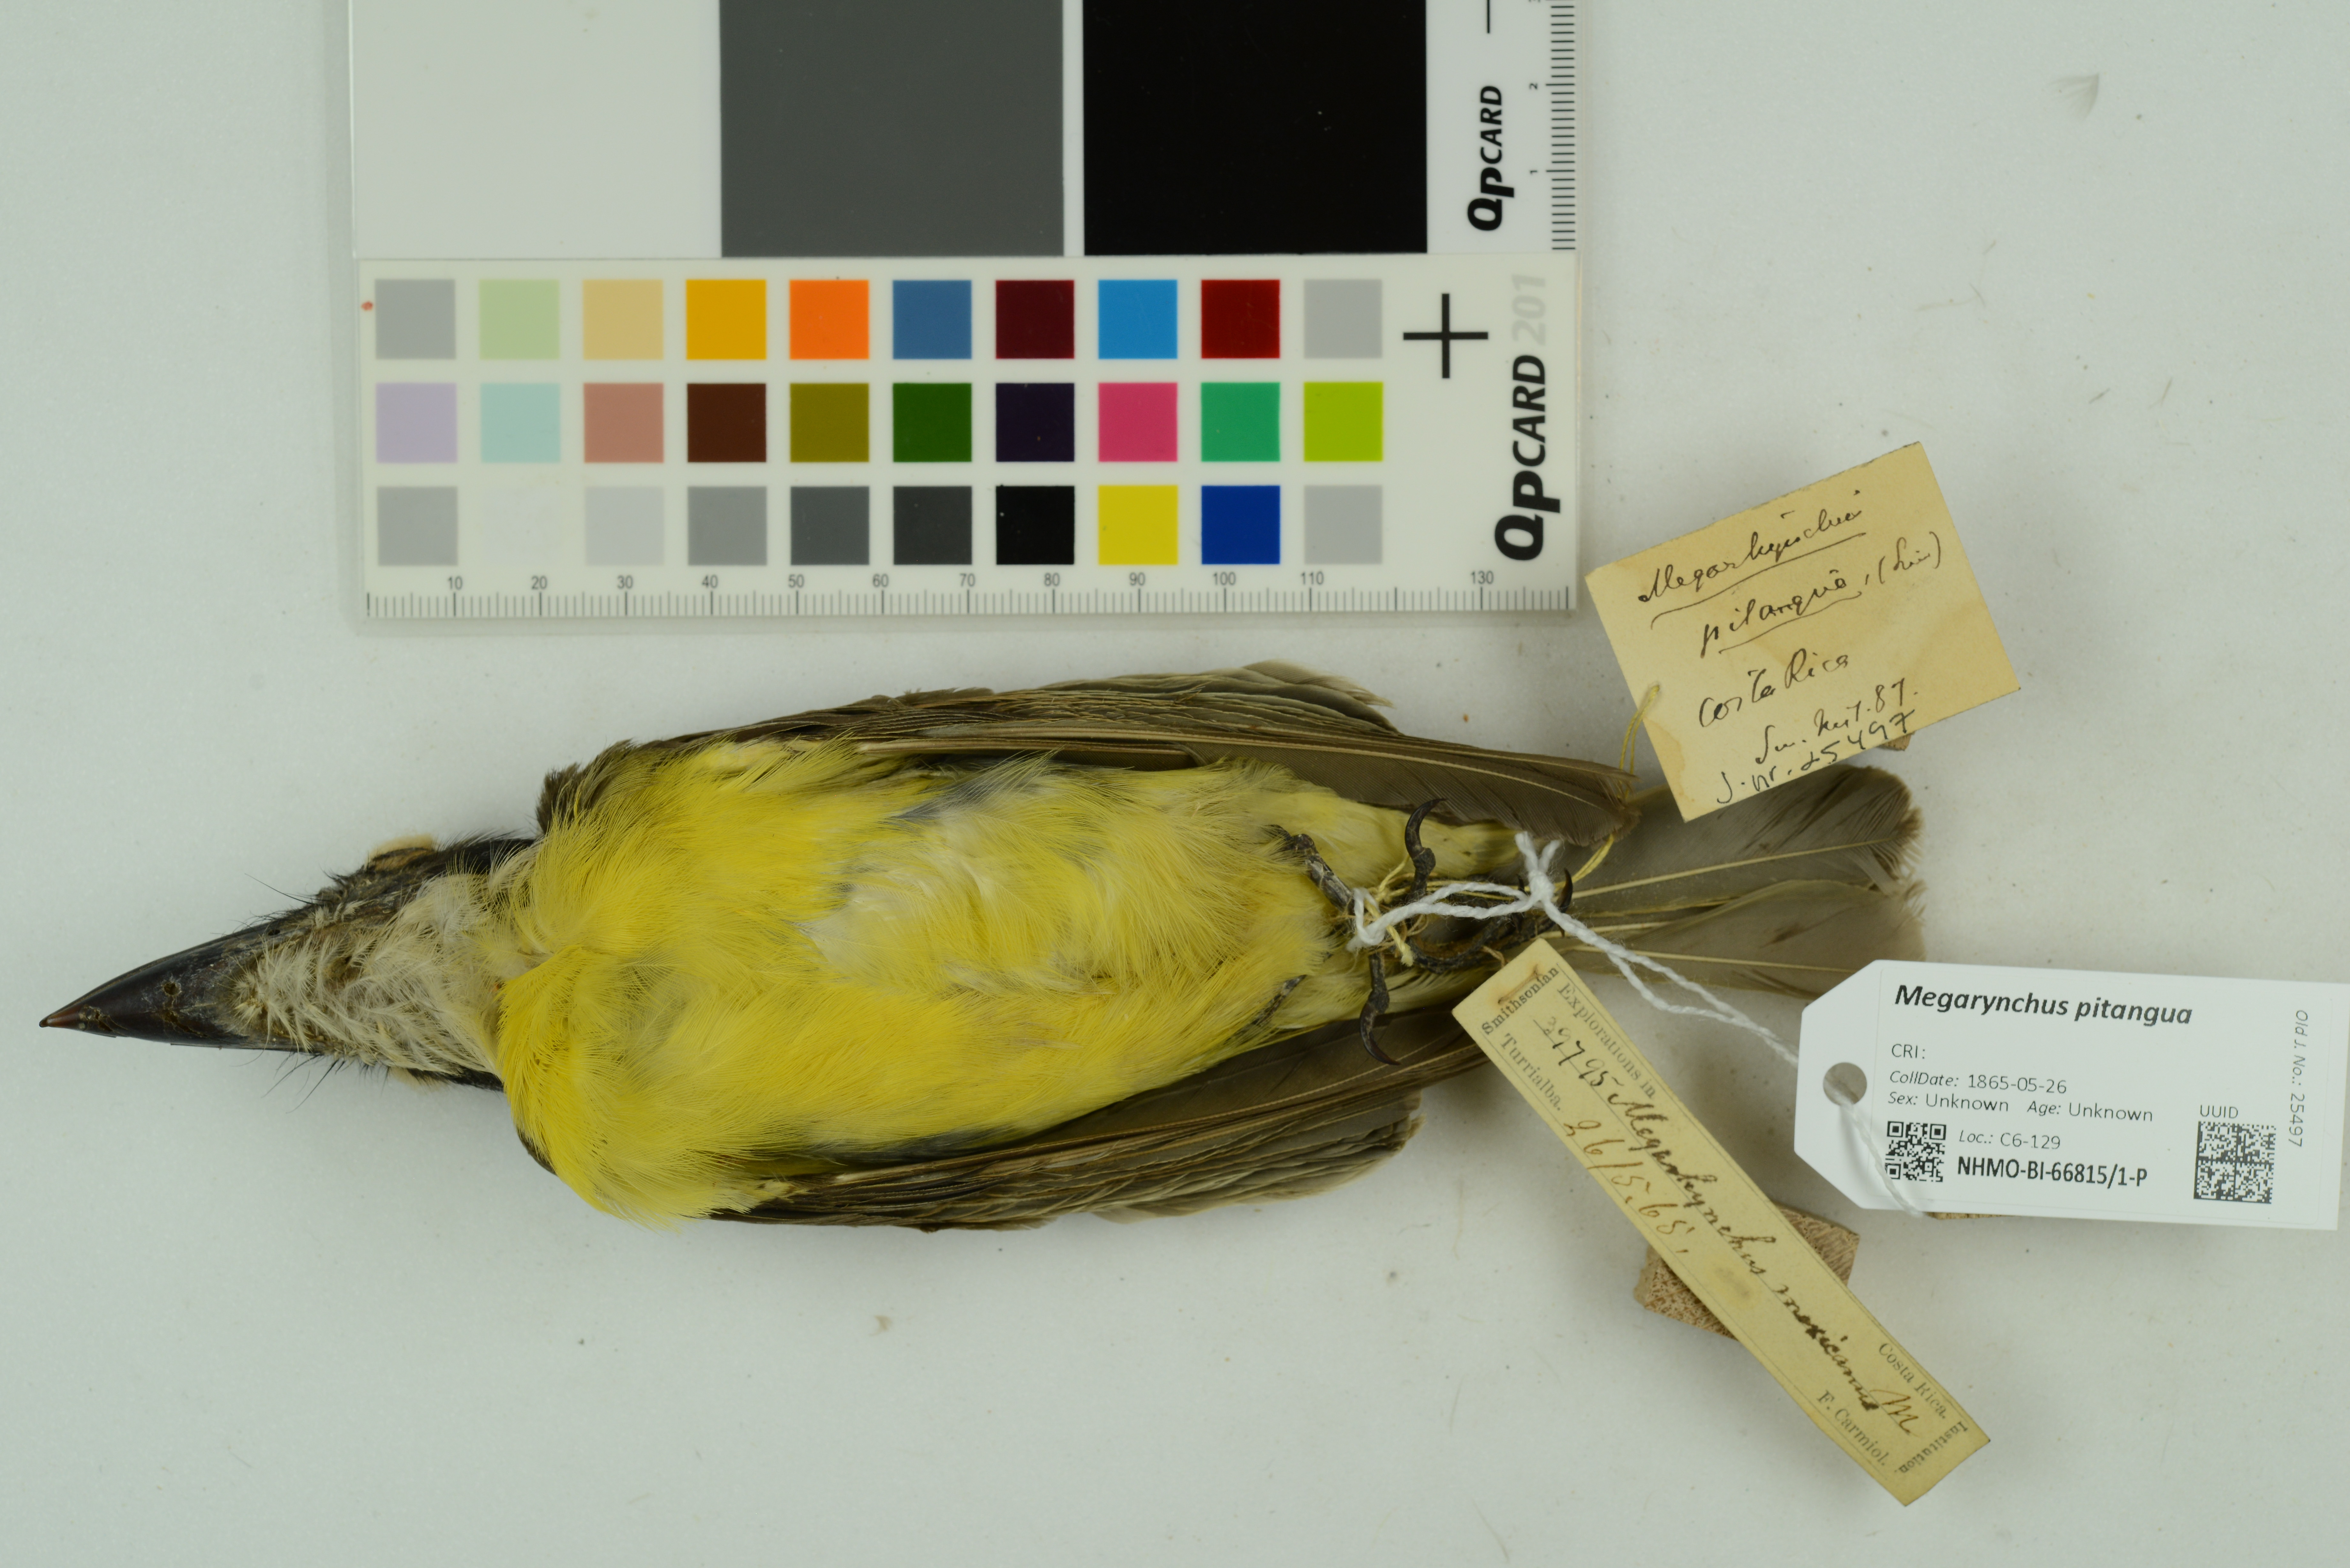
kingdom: Animalia
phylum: Chordata
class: Aves
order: Passeriformes
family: Tyrannidae
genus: Megarynchus
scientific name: Megarynchus pitangua
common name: Boat-billed flycatcher
